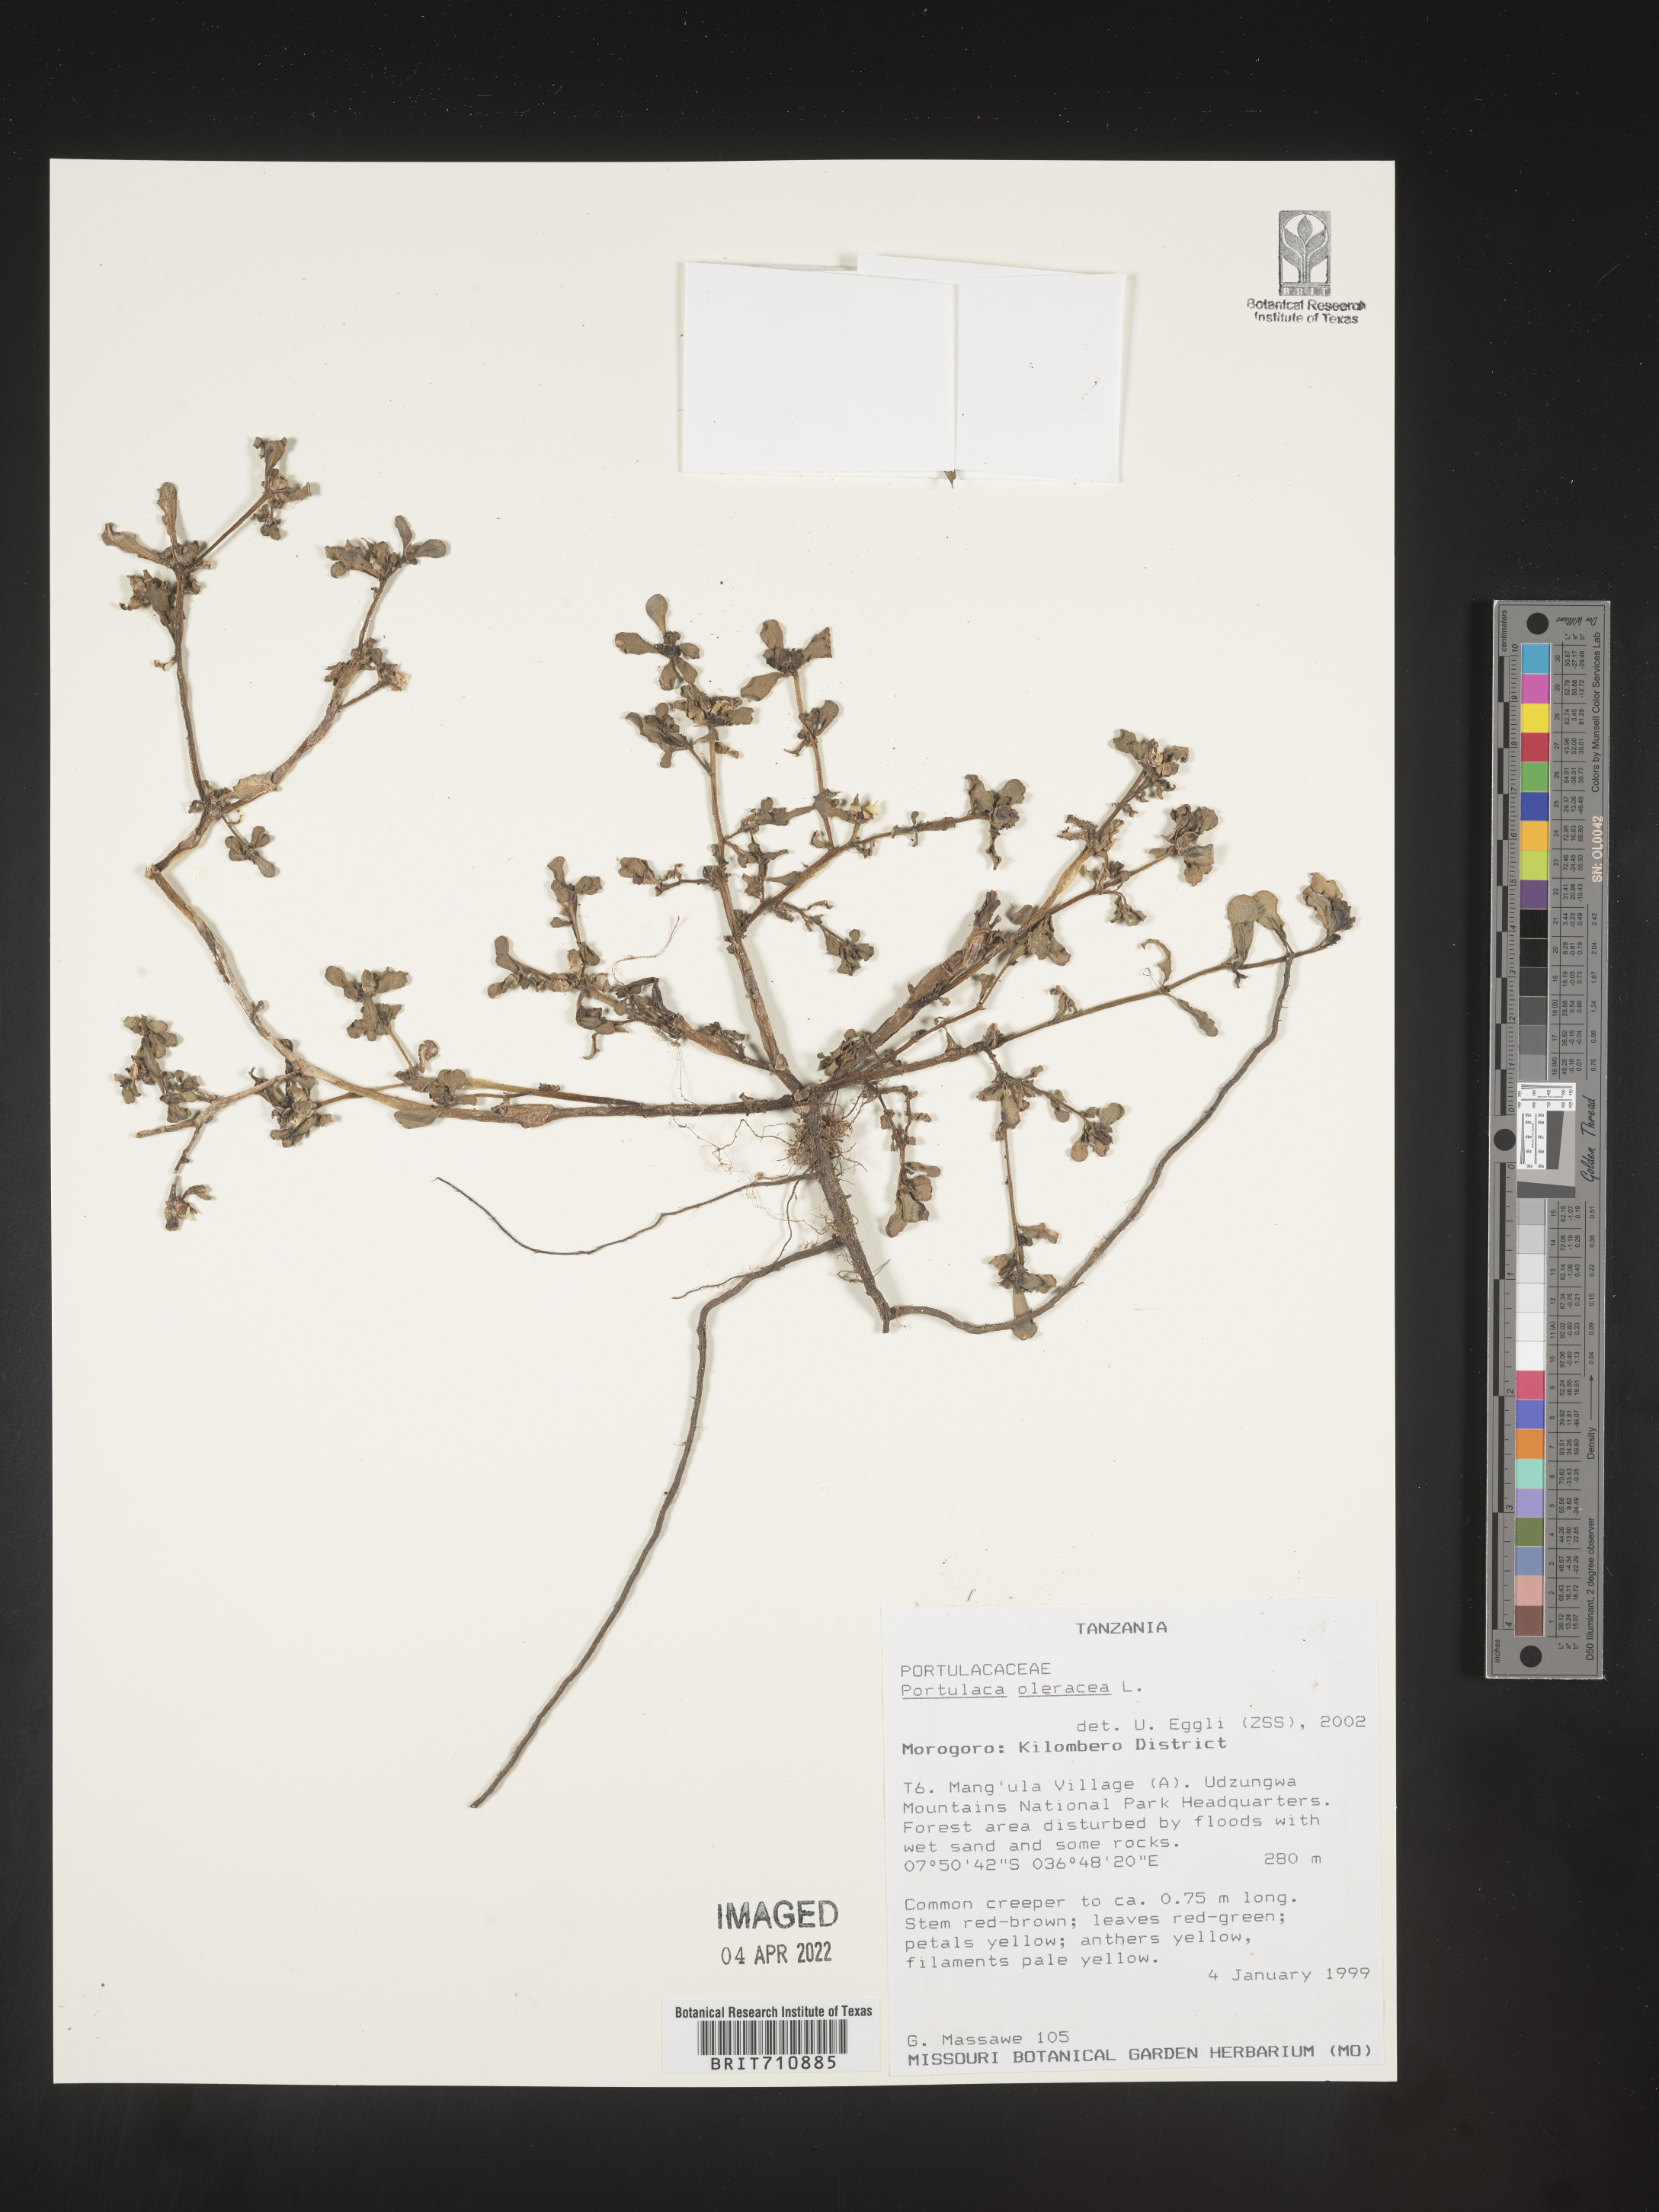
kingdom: Plantae
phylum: Tracheophyta
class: Magnoliopsida
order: Caryophyllales
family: Portulacaceae
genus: Portulaca
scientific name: Portulaca
